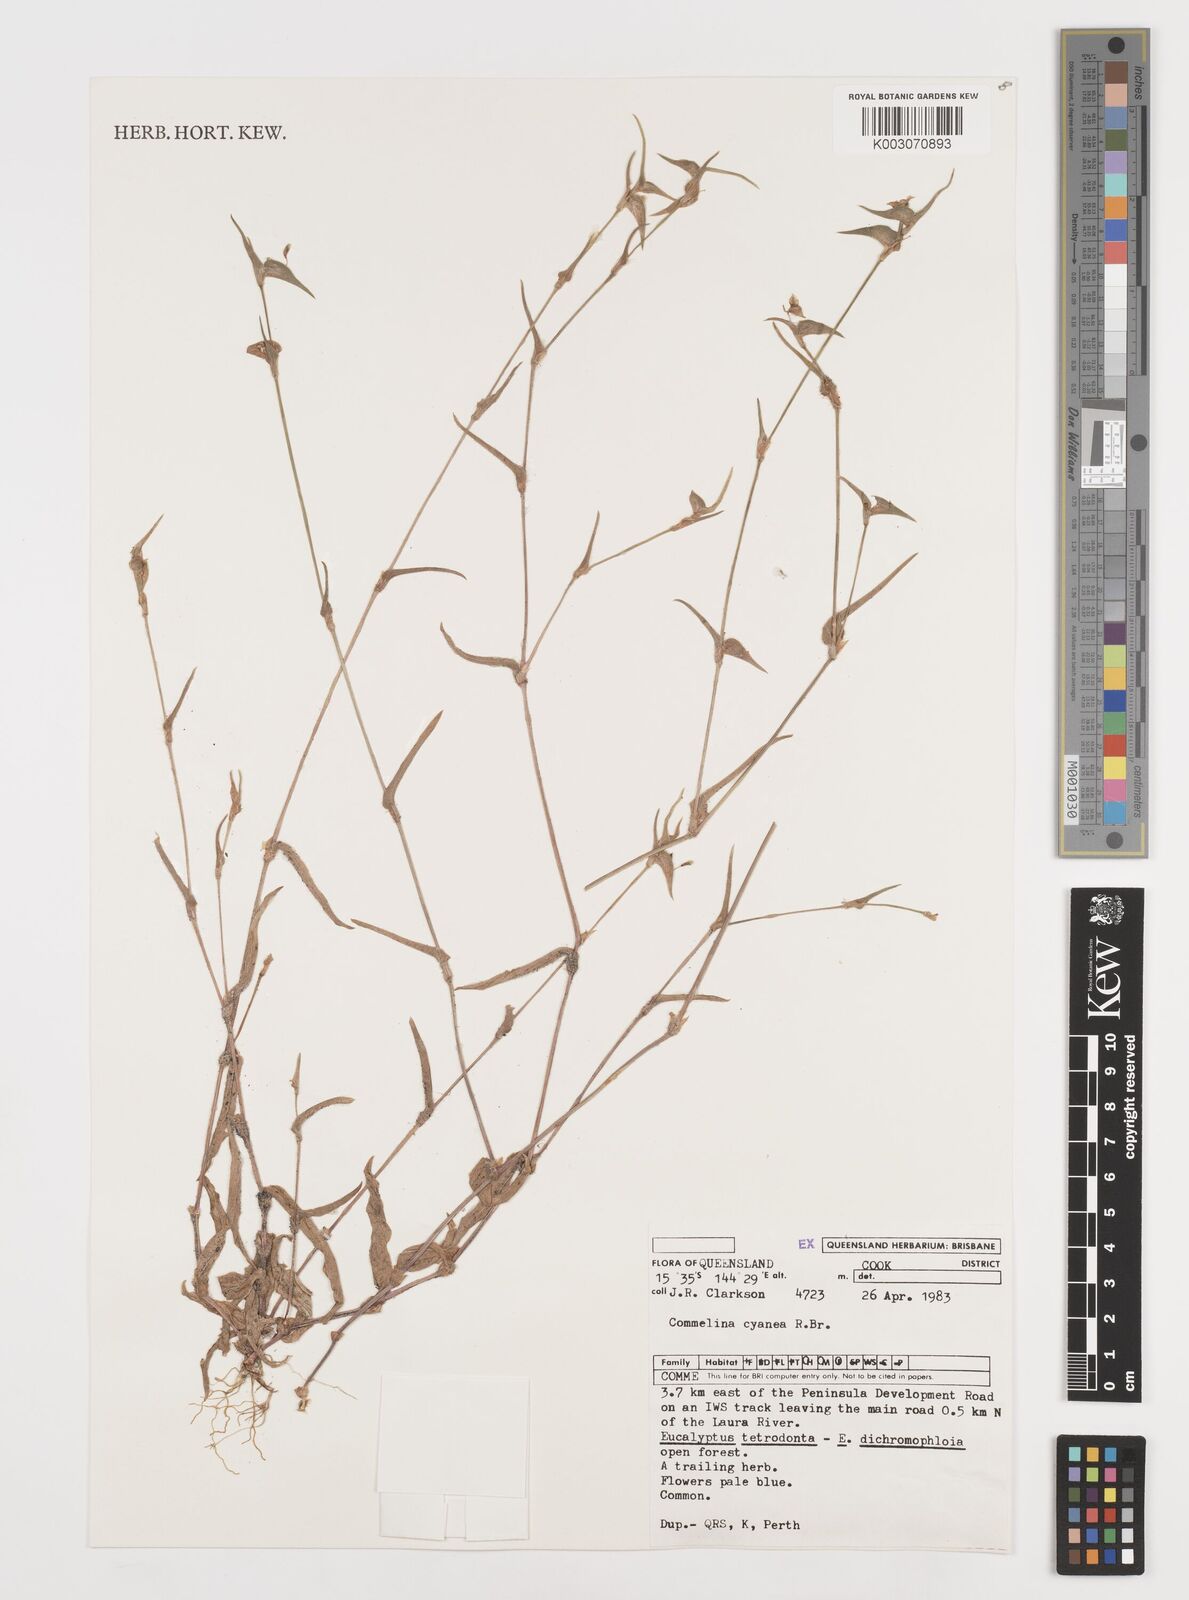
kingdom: Plantae
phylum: Tracheophyta
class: Liliopsida
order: Commelinales
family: Commelinaceae
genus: Commelina
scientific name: Commelina cyanea
